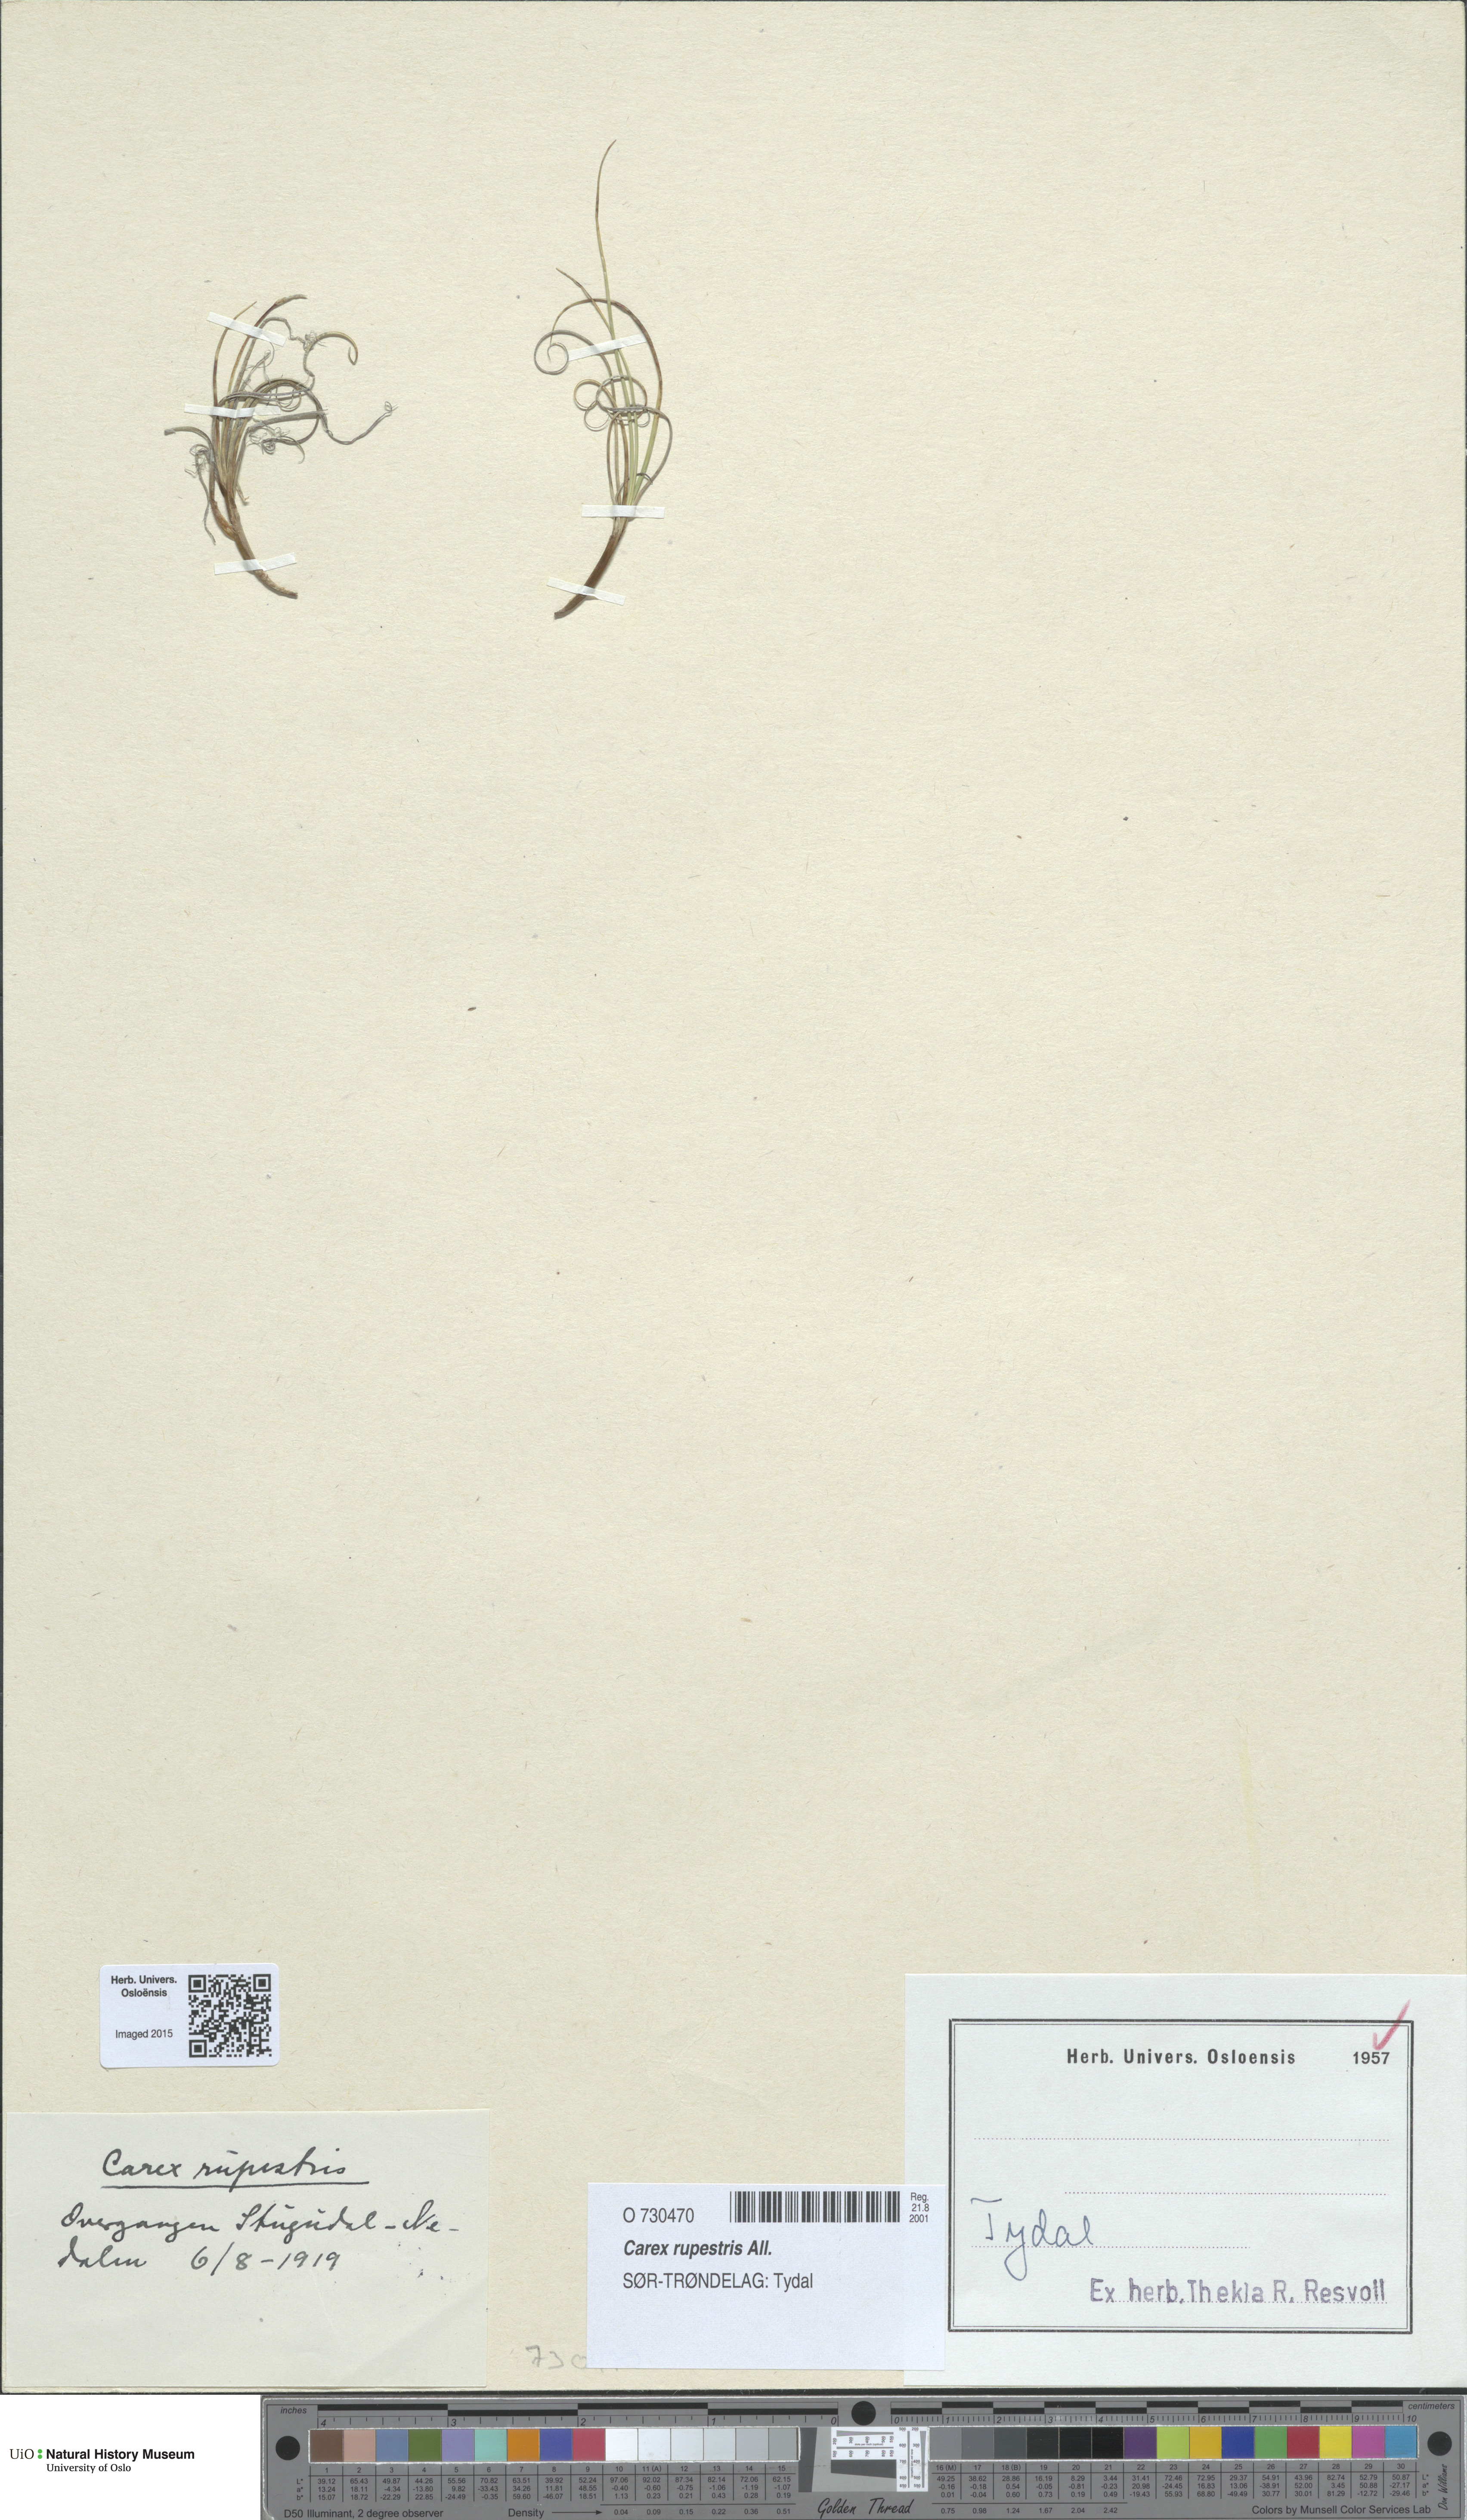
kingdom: Plantae
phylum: Tracheophyta
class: Liliopsida
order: Poales
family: Cyperaceae
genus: Carex
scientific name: Carex rupestris
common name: Rock sedge
